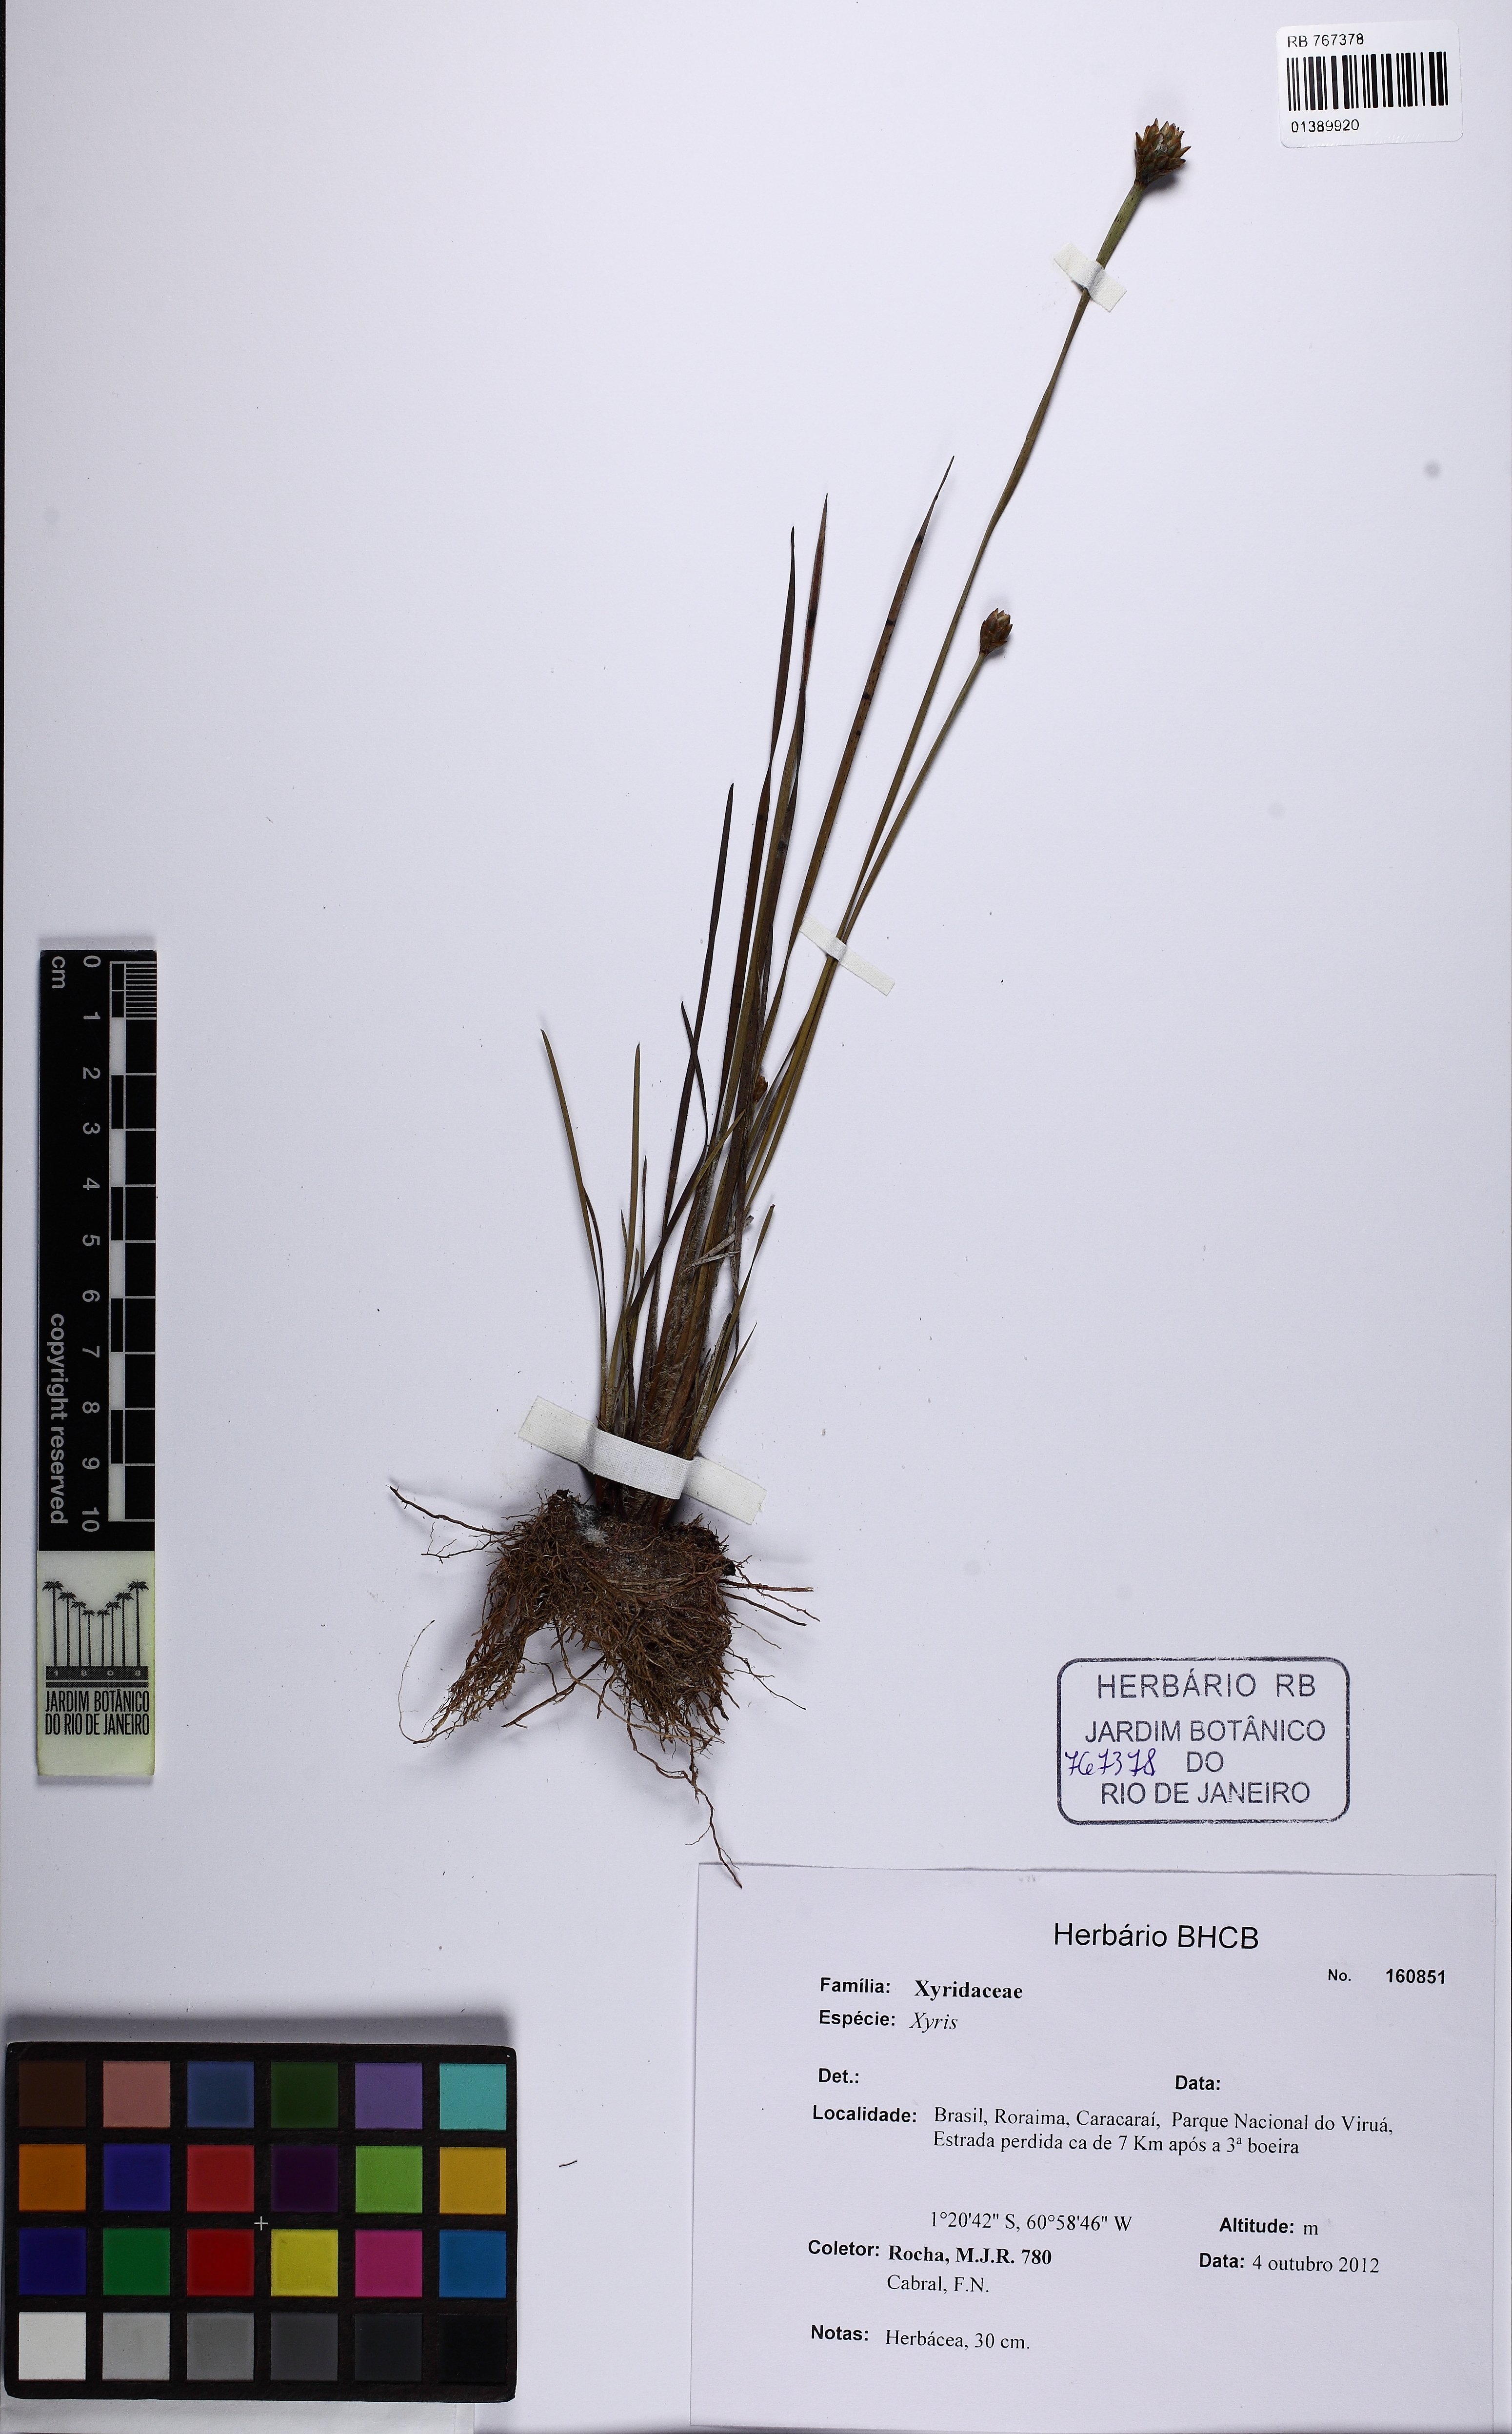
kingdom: Plantae
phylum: Tracheophyta
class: Liliopsida
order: Poales
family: Xyridaceae
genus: Xyris
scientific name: Xyris
